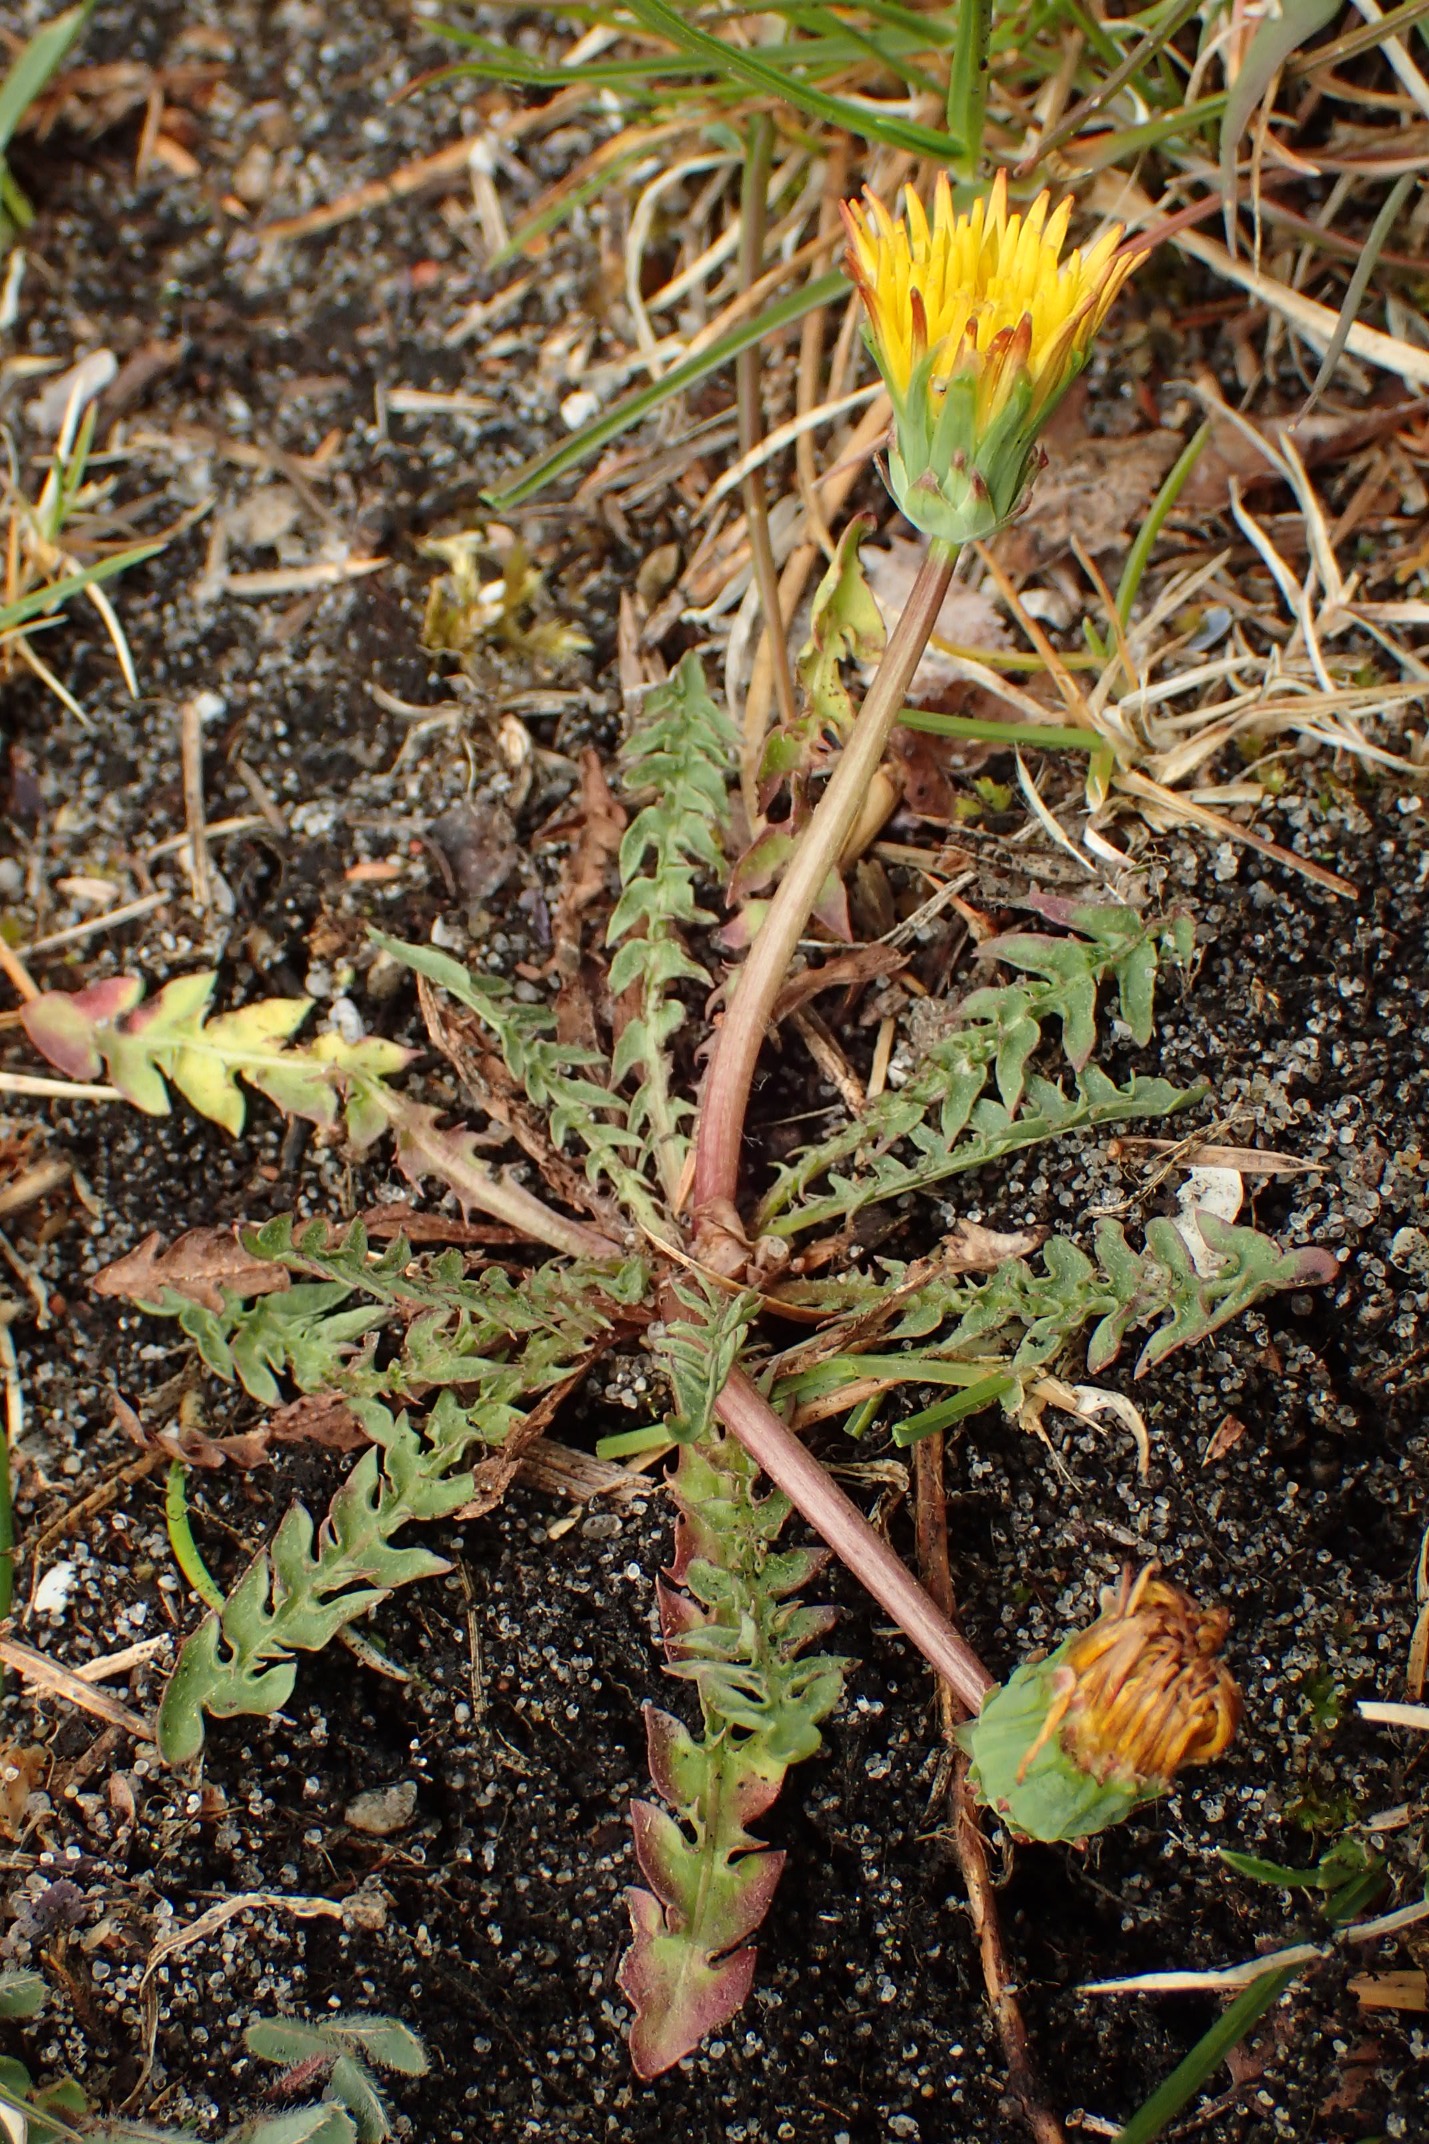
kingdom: Plantae
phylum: Tracheophyta
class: Magnoliopsida
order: Asterales
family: Asteraceae
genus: Taraxacum
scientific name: Taraxacum obliquum
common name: Gråfrugtet dværgmælkebøtte
